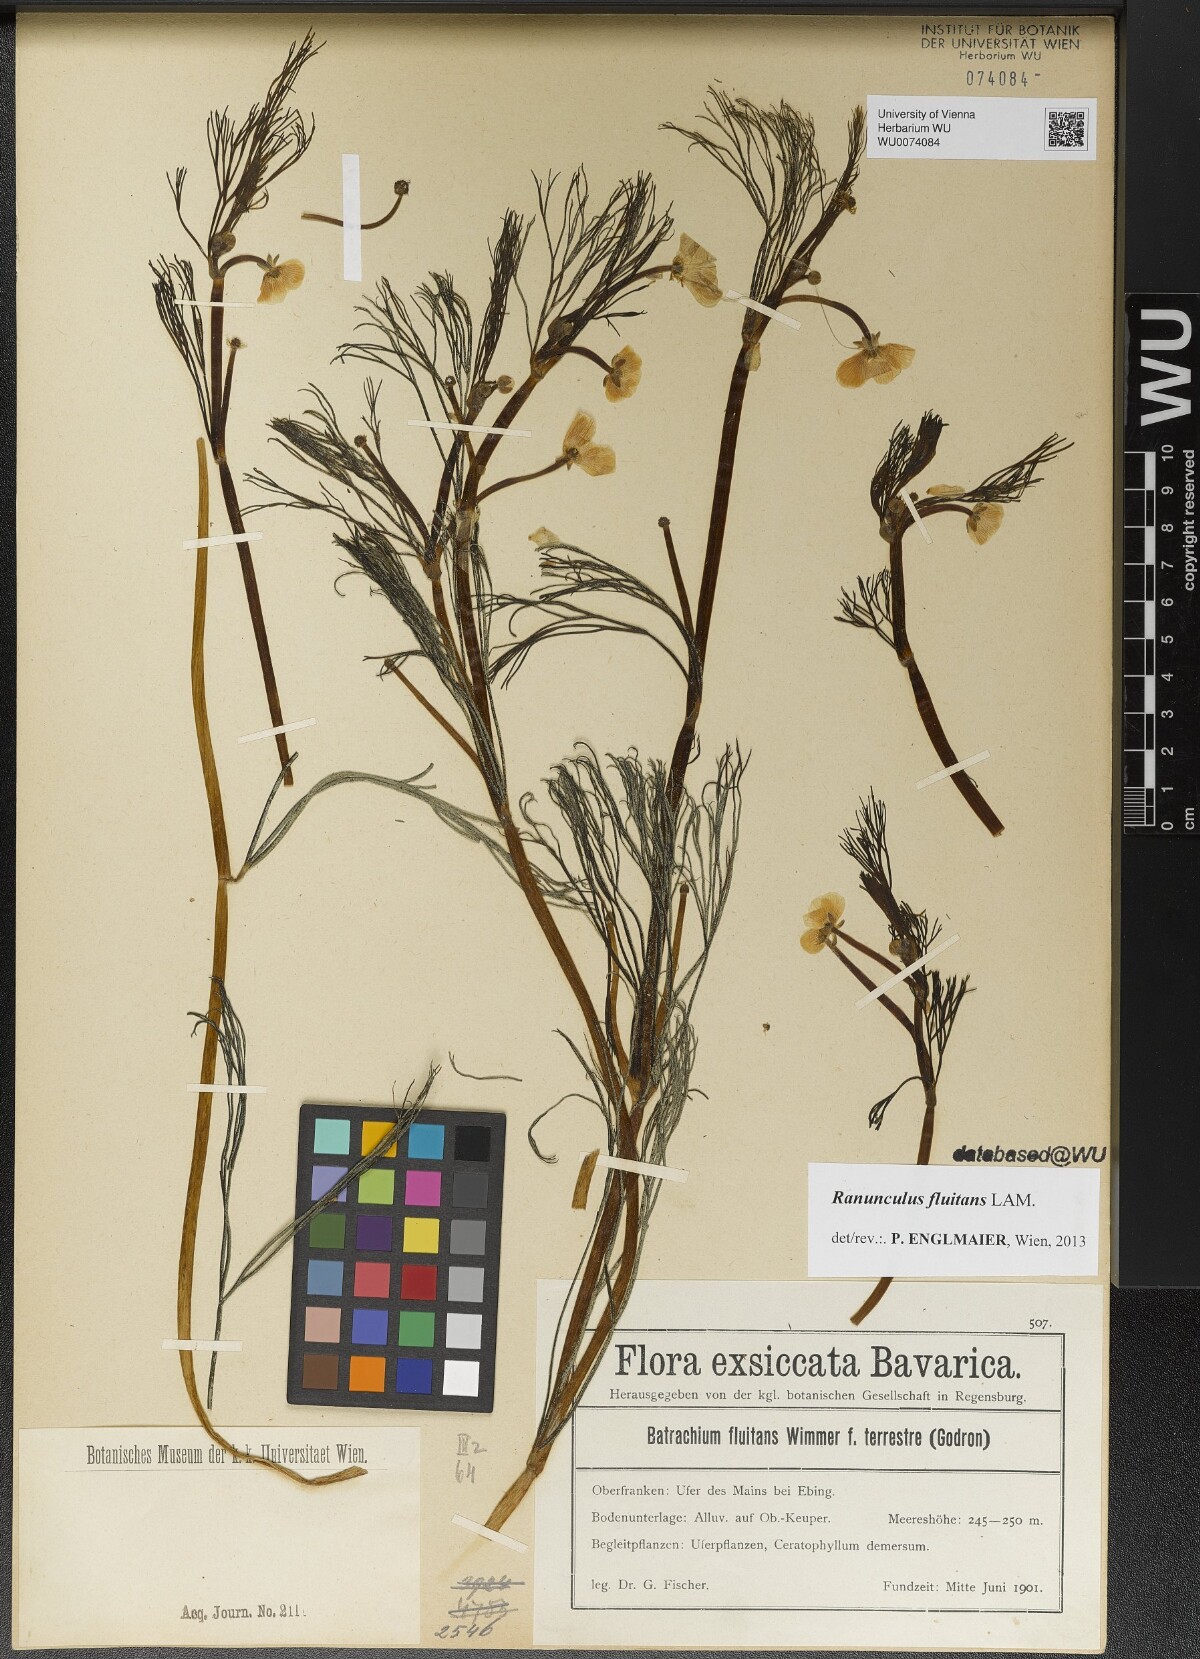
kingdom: Plantae
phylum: Tracheophyta
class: Magnoliopsida
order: Ranunculales
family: Ranunculaceae
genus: Ranunculus
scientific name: Ranunculus fluitans
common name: River water-crowfoot
